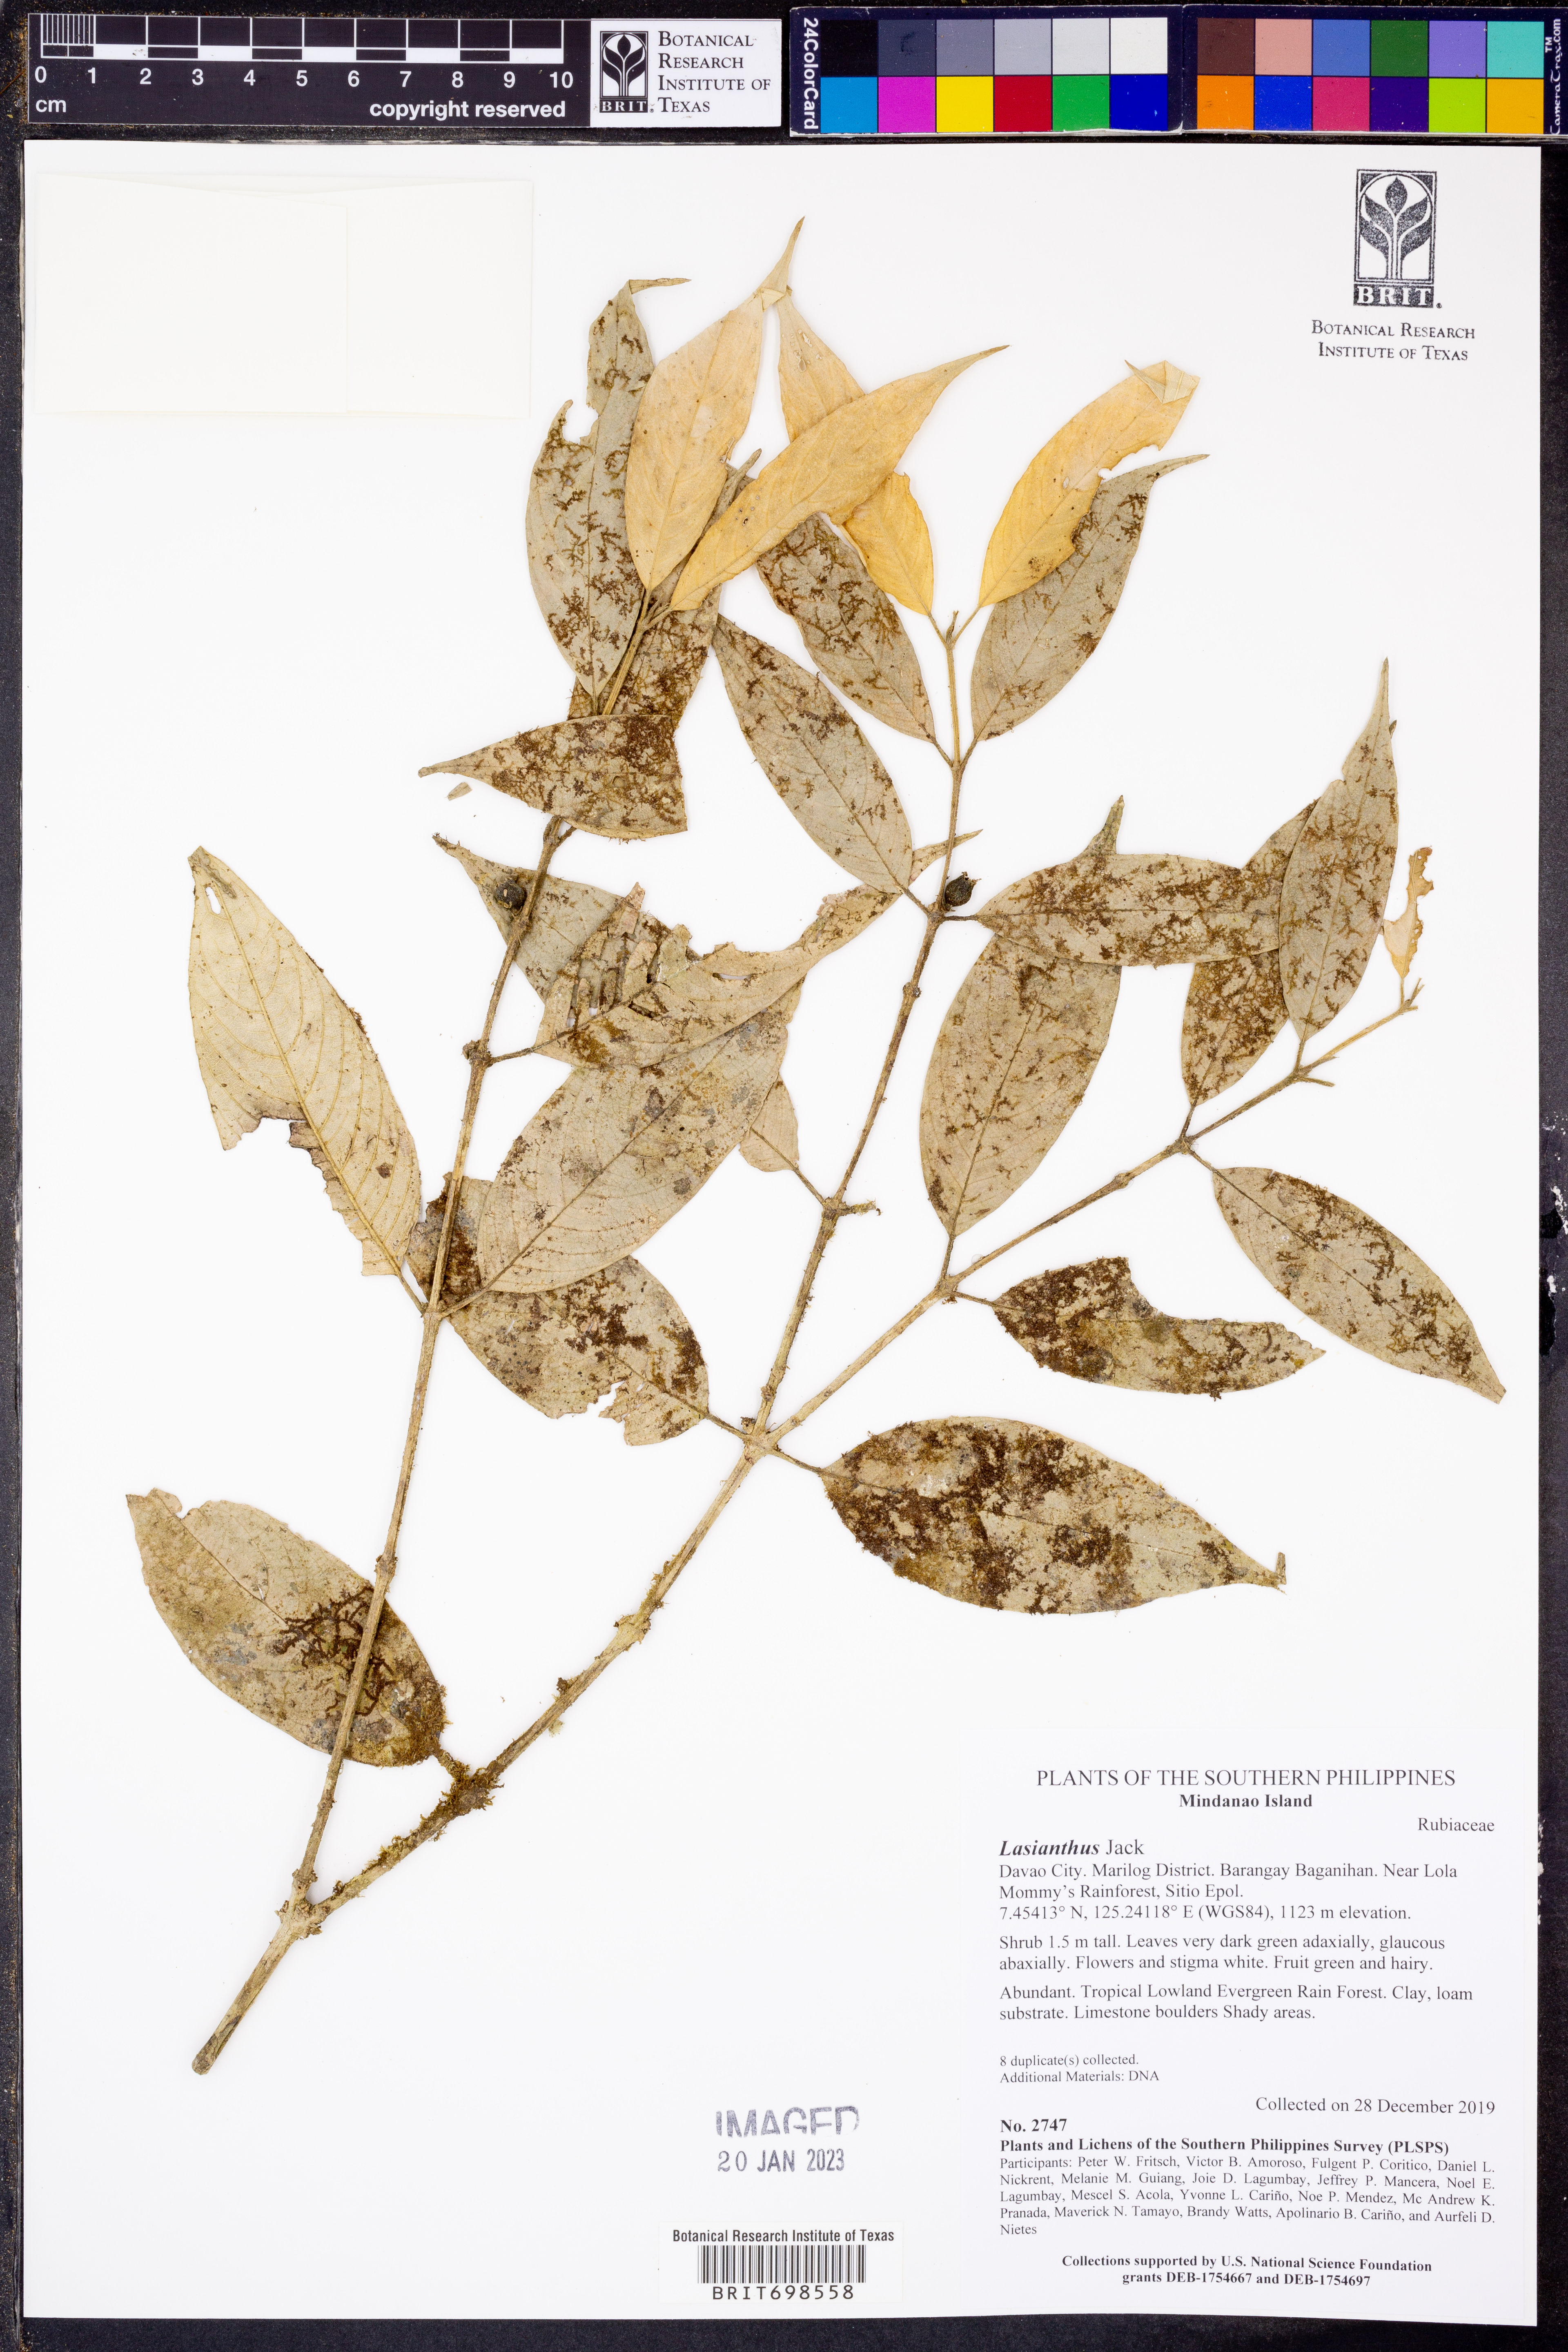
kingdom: Plantae
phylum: Tracheophyta
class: Magnoliopsida
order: Gentianales
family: Rubiaceae
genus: Lasianthus
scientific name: Lasianthus
